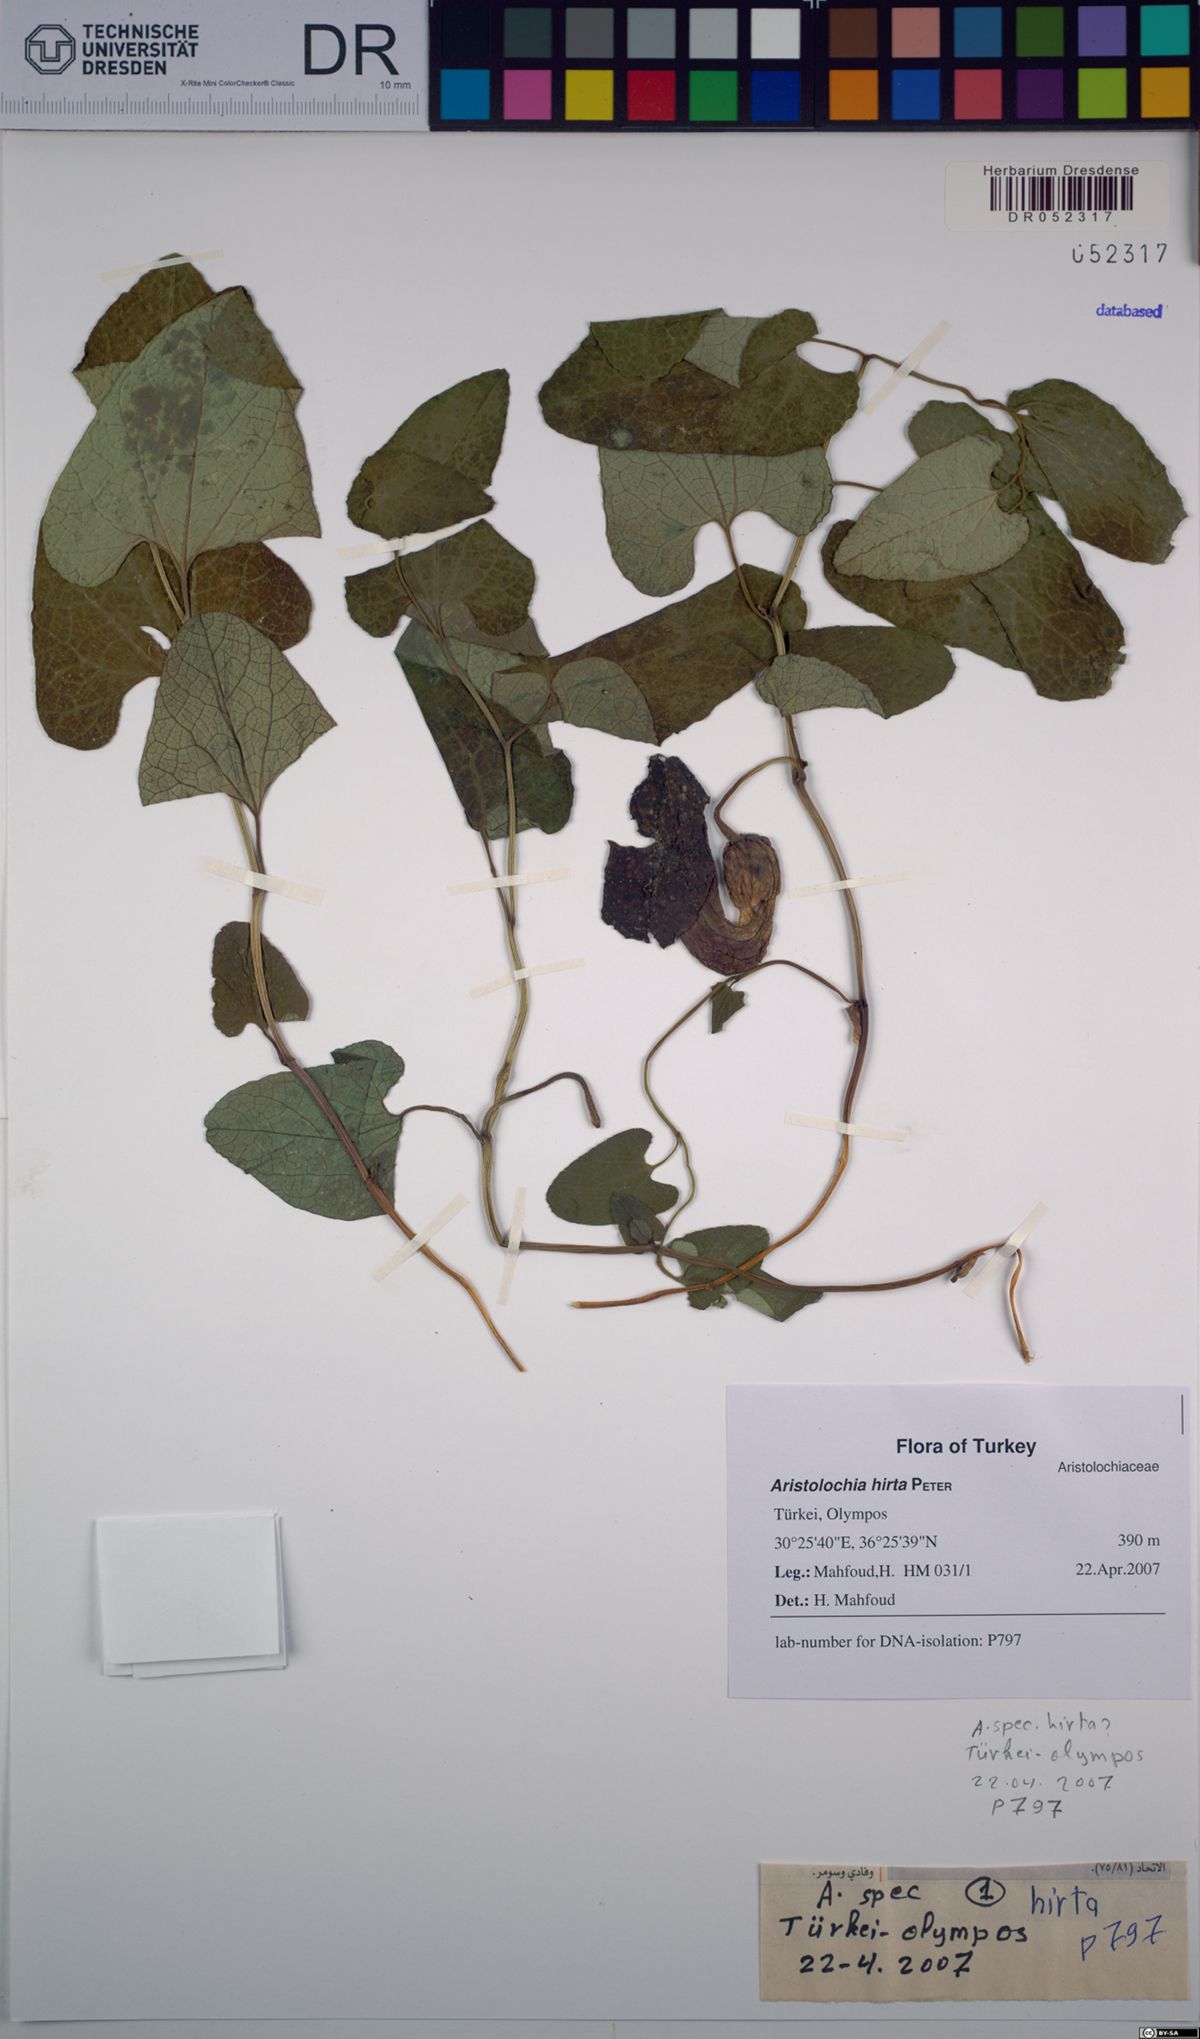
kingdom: Plantae
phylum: Tracheophyta
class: Magnoliopsida
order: Piperales
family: Aristolochiaceae
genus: Aristolochia
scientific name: Aristolochia hockii
